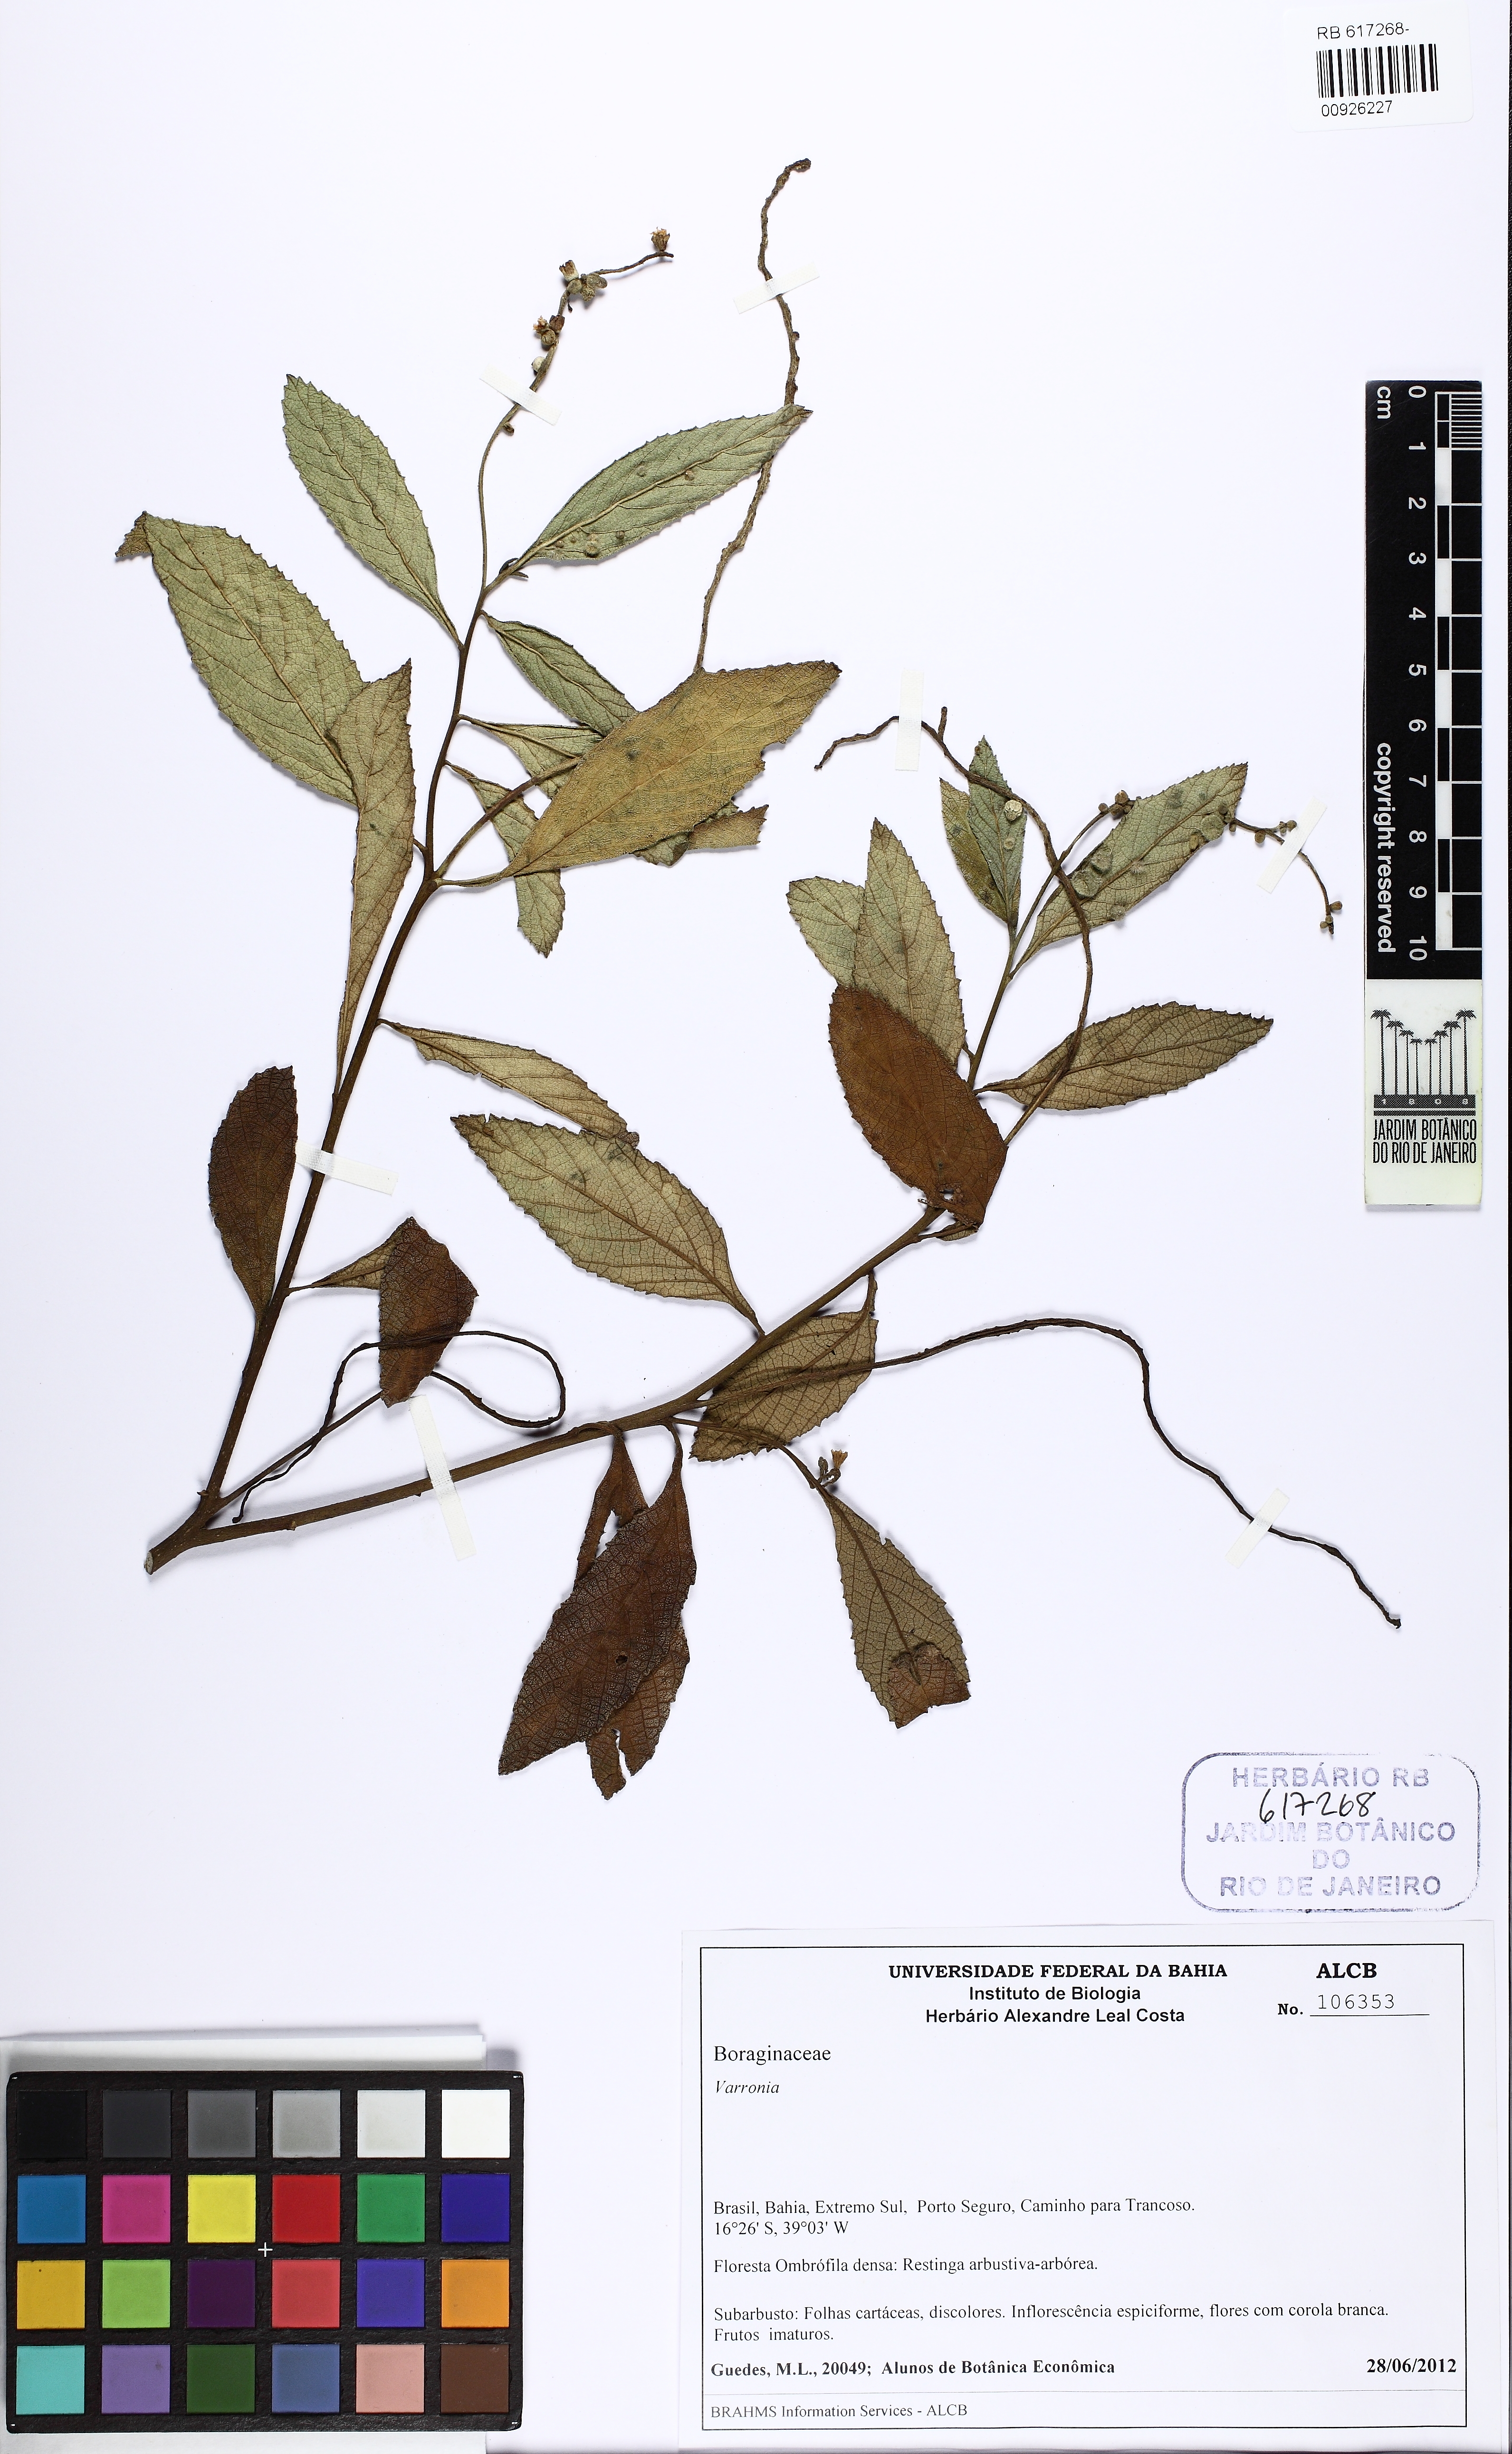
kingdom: Plantae
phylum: Tracheophyta
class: Magnoliopsida
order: Boraginales
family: Cordiaceae
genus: Varronia
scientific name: Varronia
